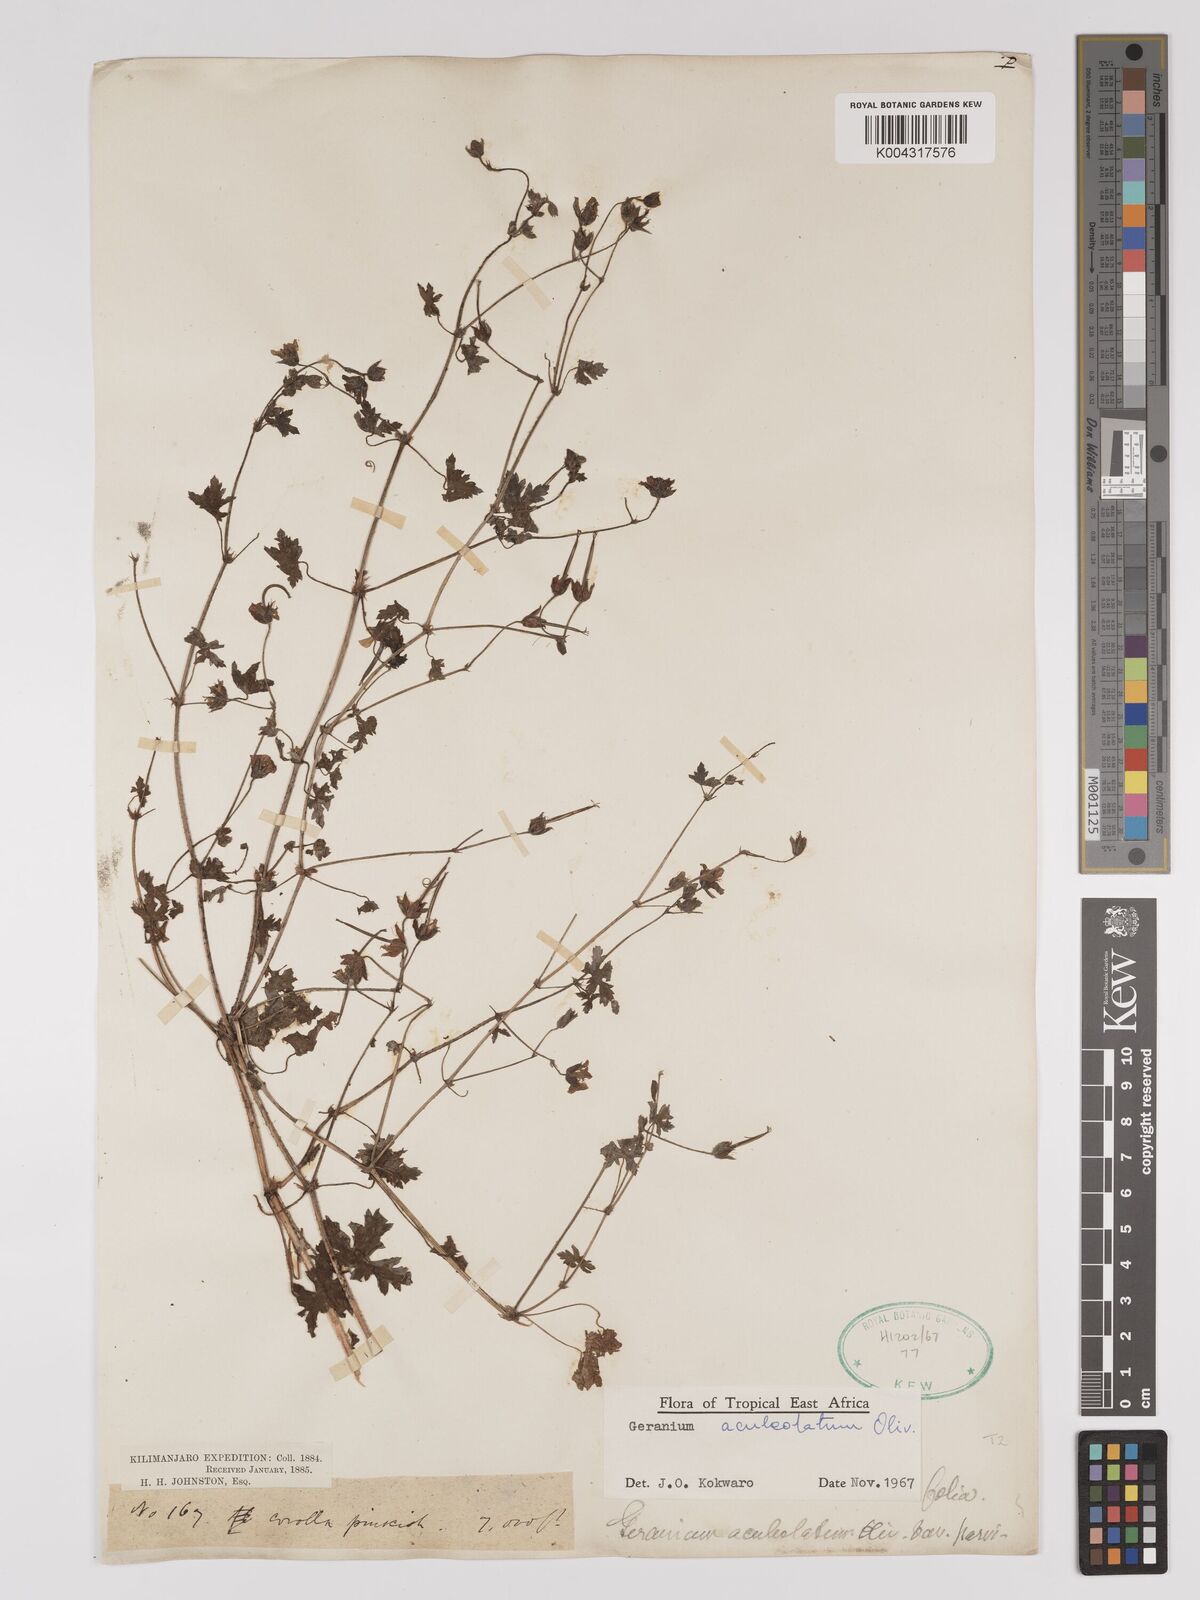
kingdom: Plantae
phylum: Tracheophyta
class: Magnoliopsida
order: Geraniales
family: Geraniaceae
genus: Geranium
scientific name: Geranium aculeolatum
